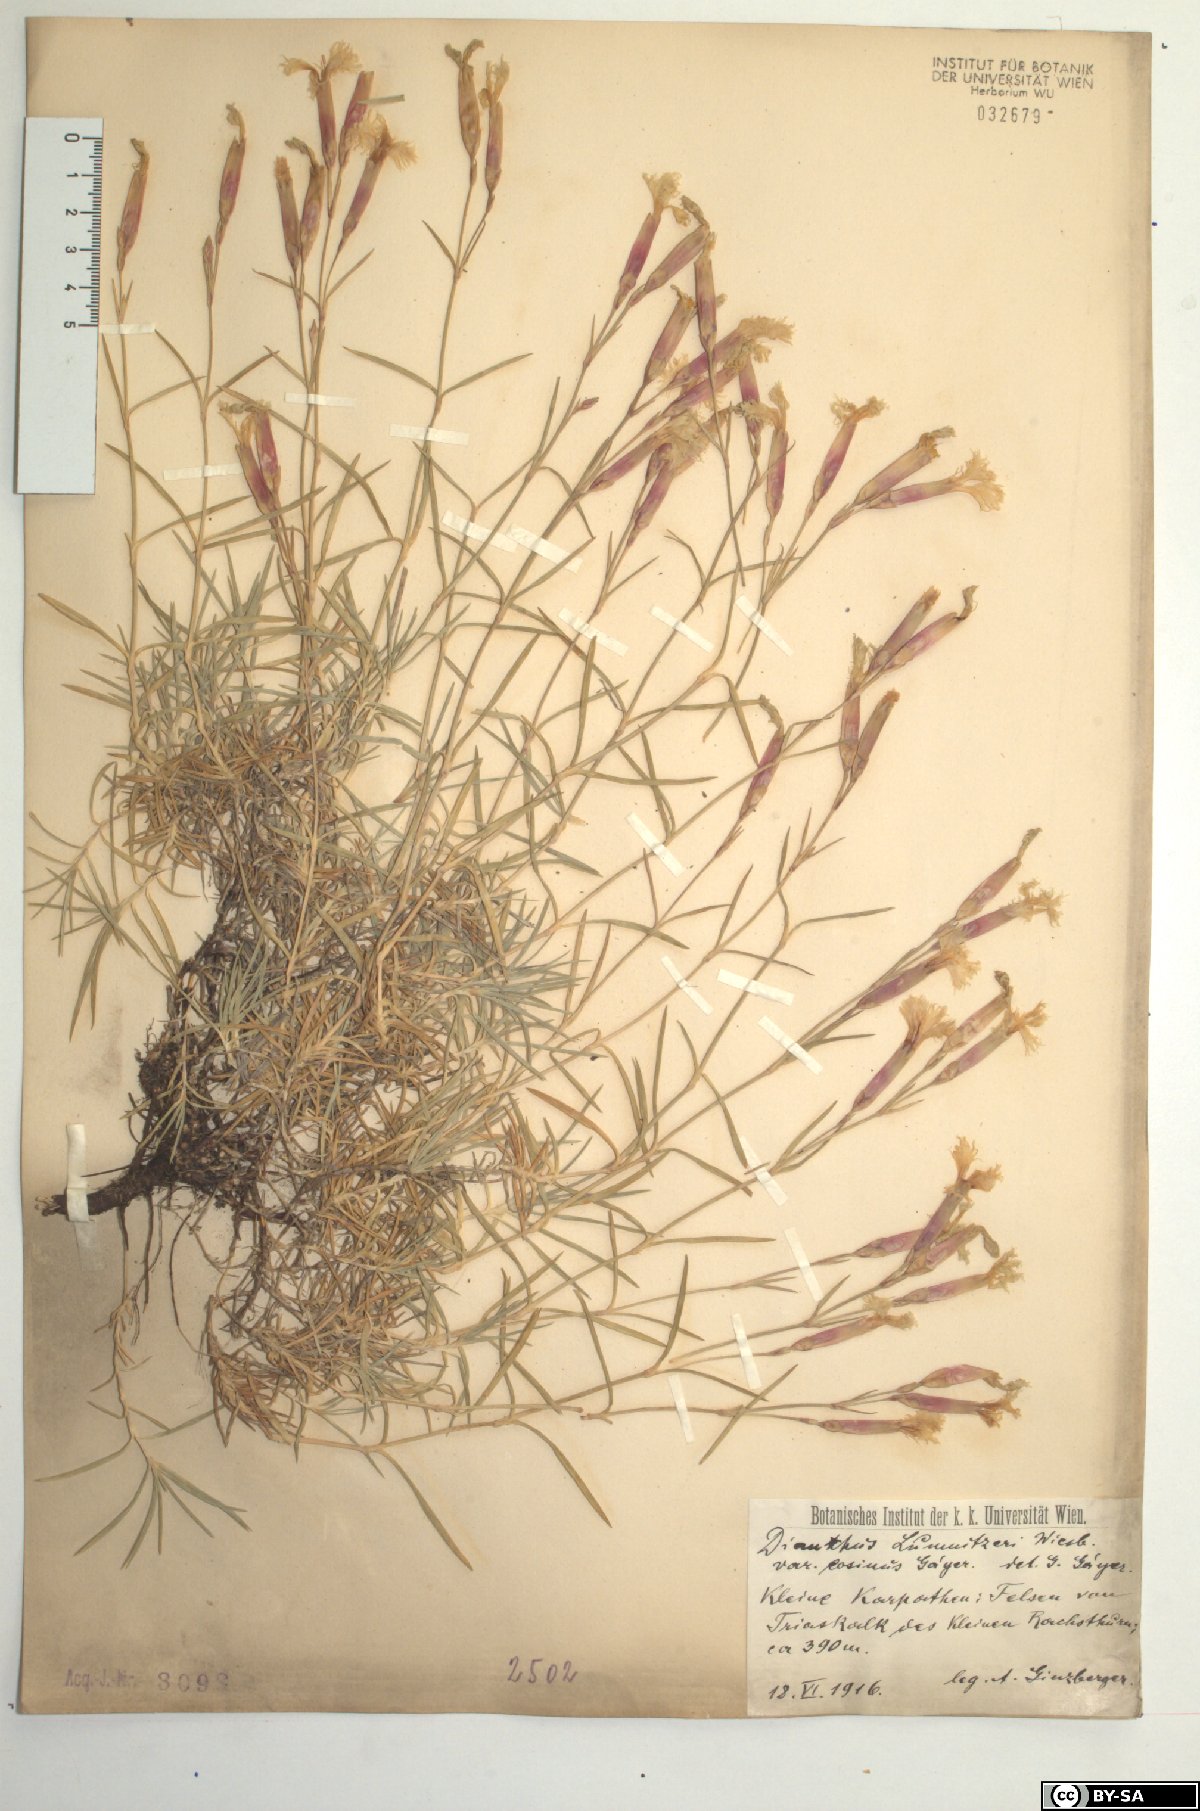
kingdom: Plantae
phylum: Tracheophyta
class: Magnoliopsida
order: Caryophyllales
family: Caryophyllaceae
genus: Dianthus
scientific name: Dianthus praecox
